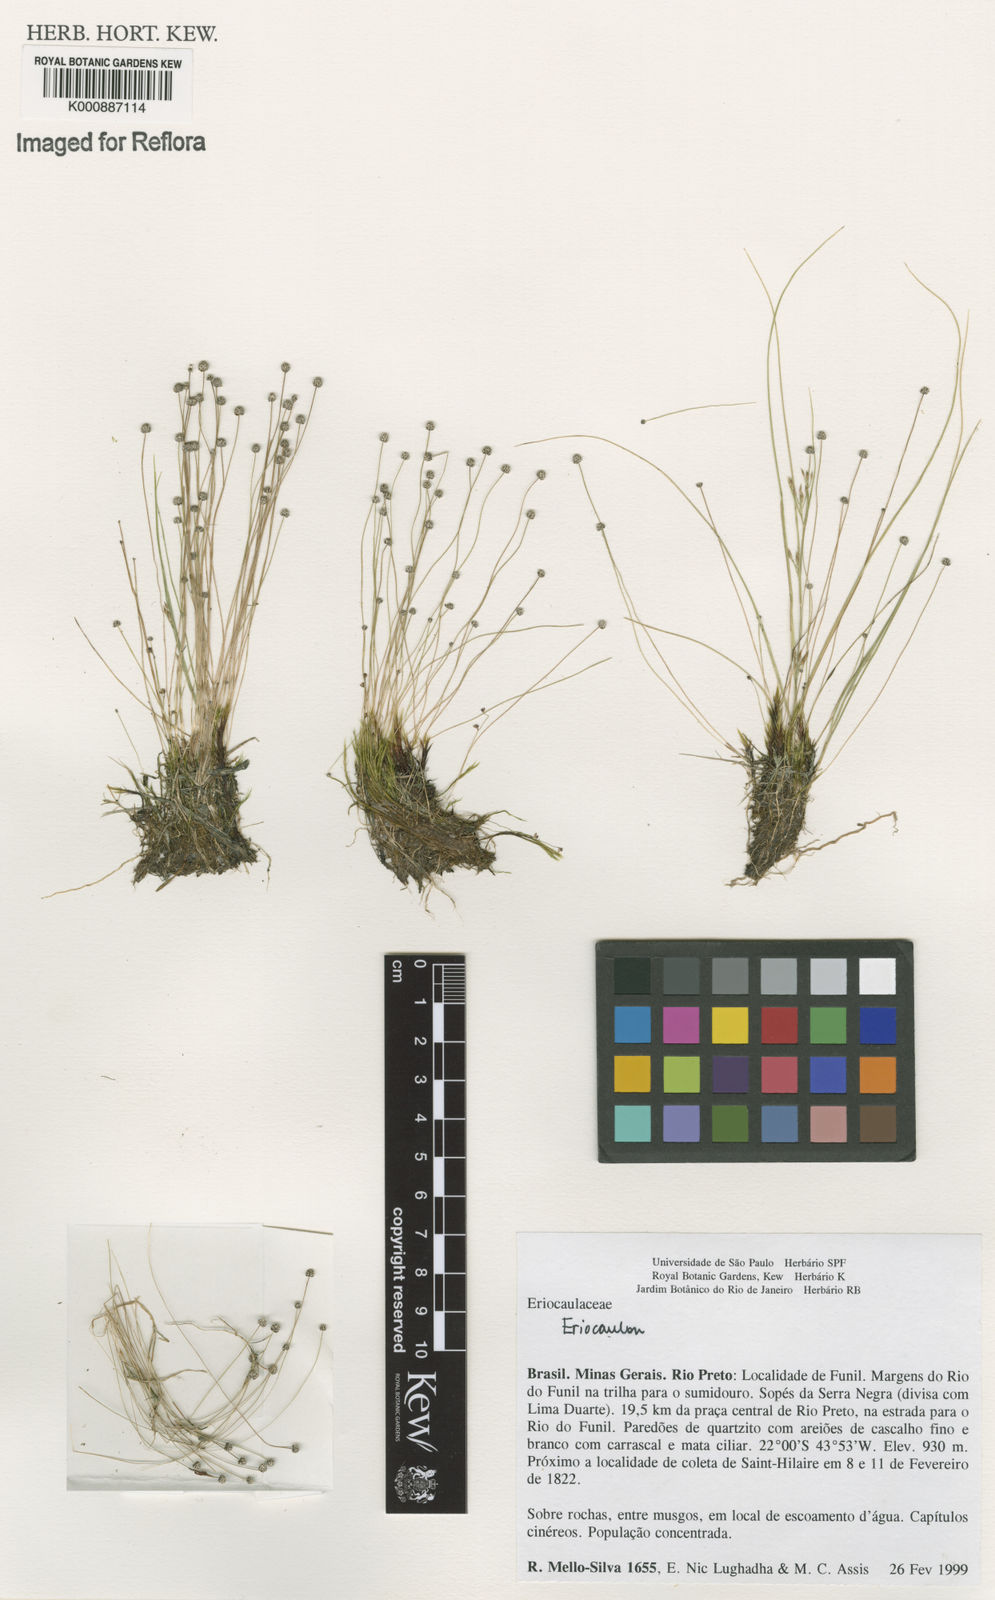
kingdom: Plantae
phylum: Tracheophyta
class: Liliopsida
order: Poales
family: Eriocaulaceae
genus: Eriocaulon
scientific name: Eriocaulon
